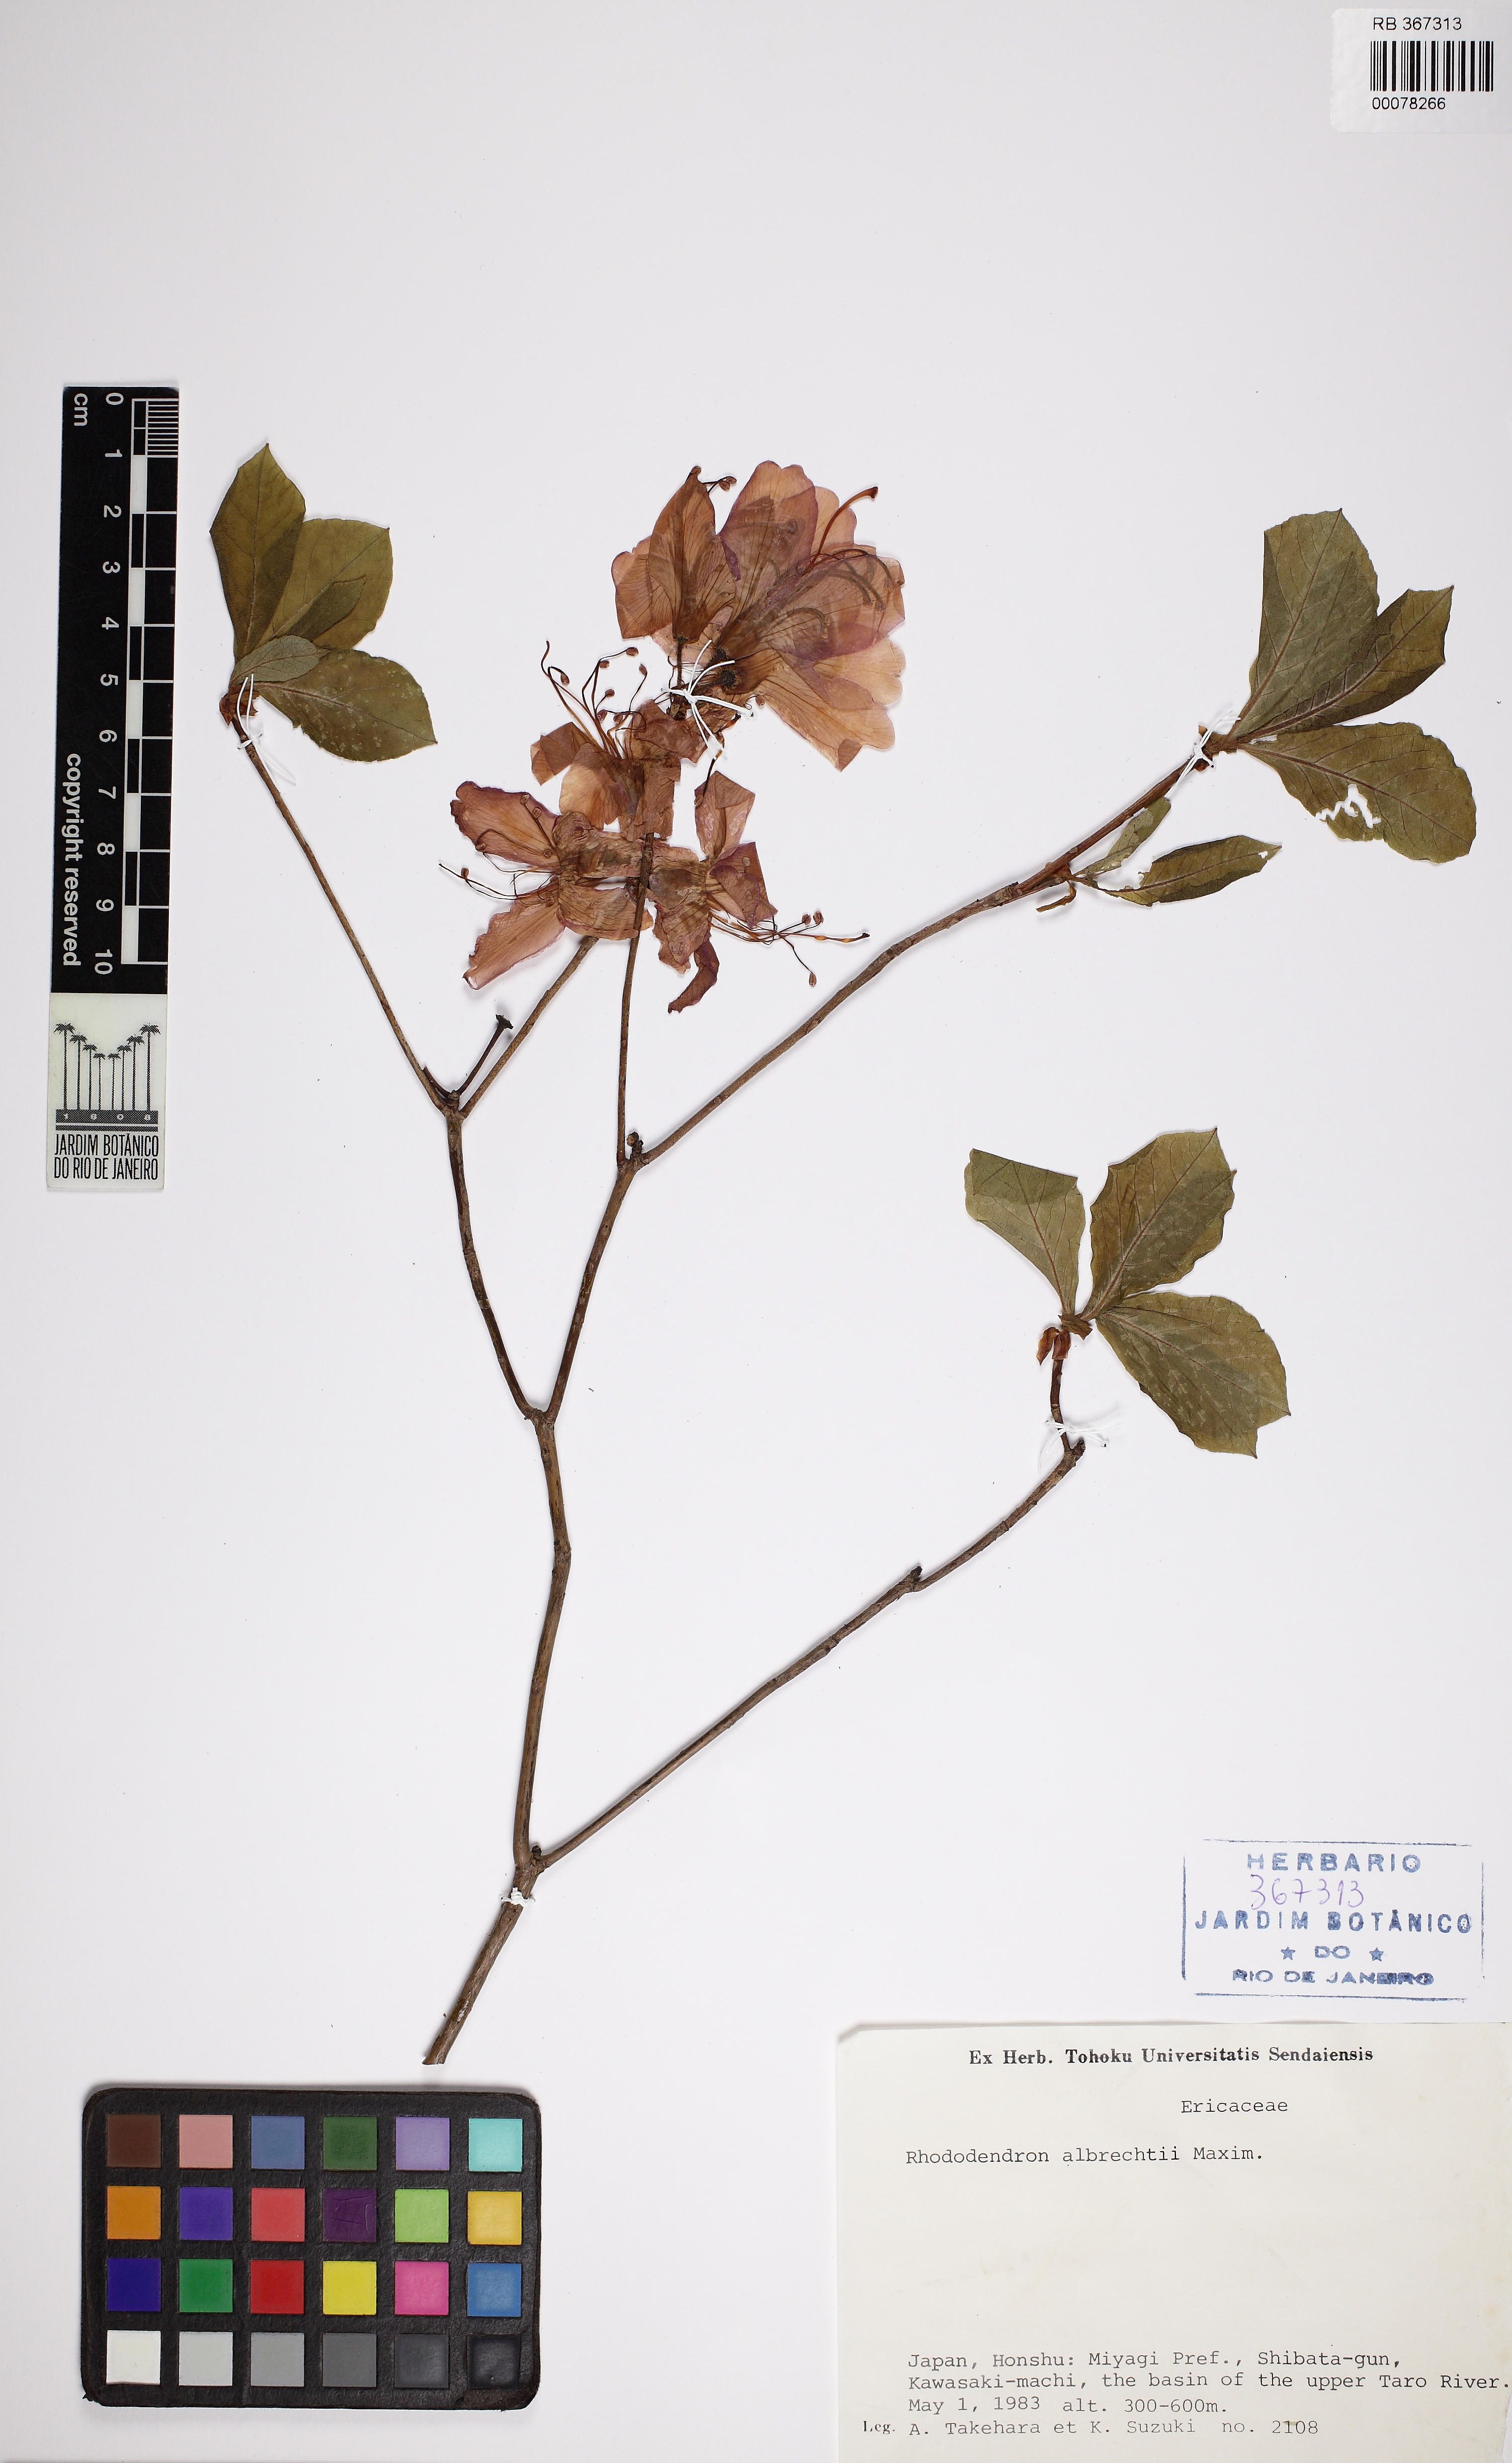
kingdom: Plantae
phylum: Tracheophyta
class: Magnoliopsida
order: Ericales
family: Ericaceae
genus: Rhododendron
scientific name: Rhododendron albrechtii
